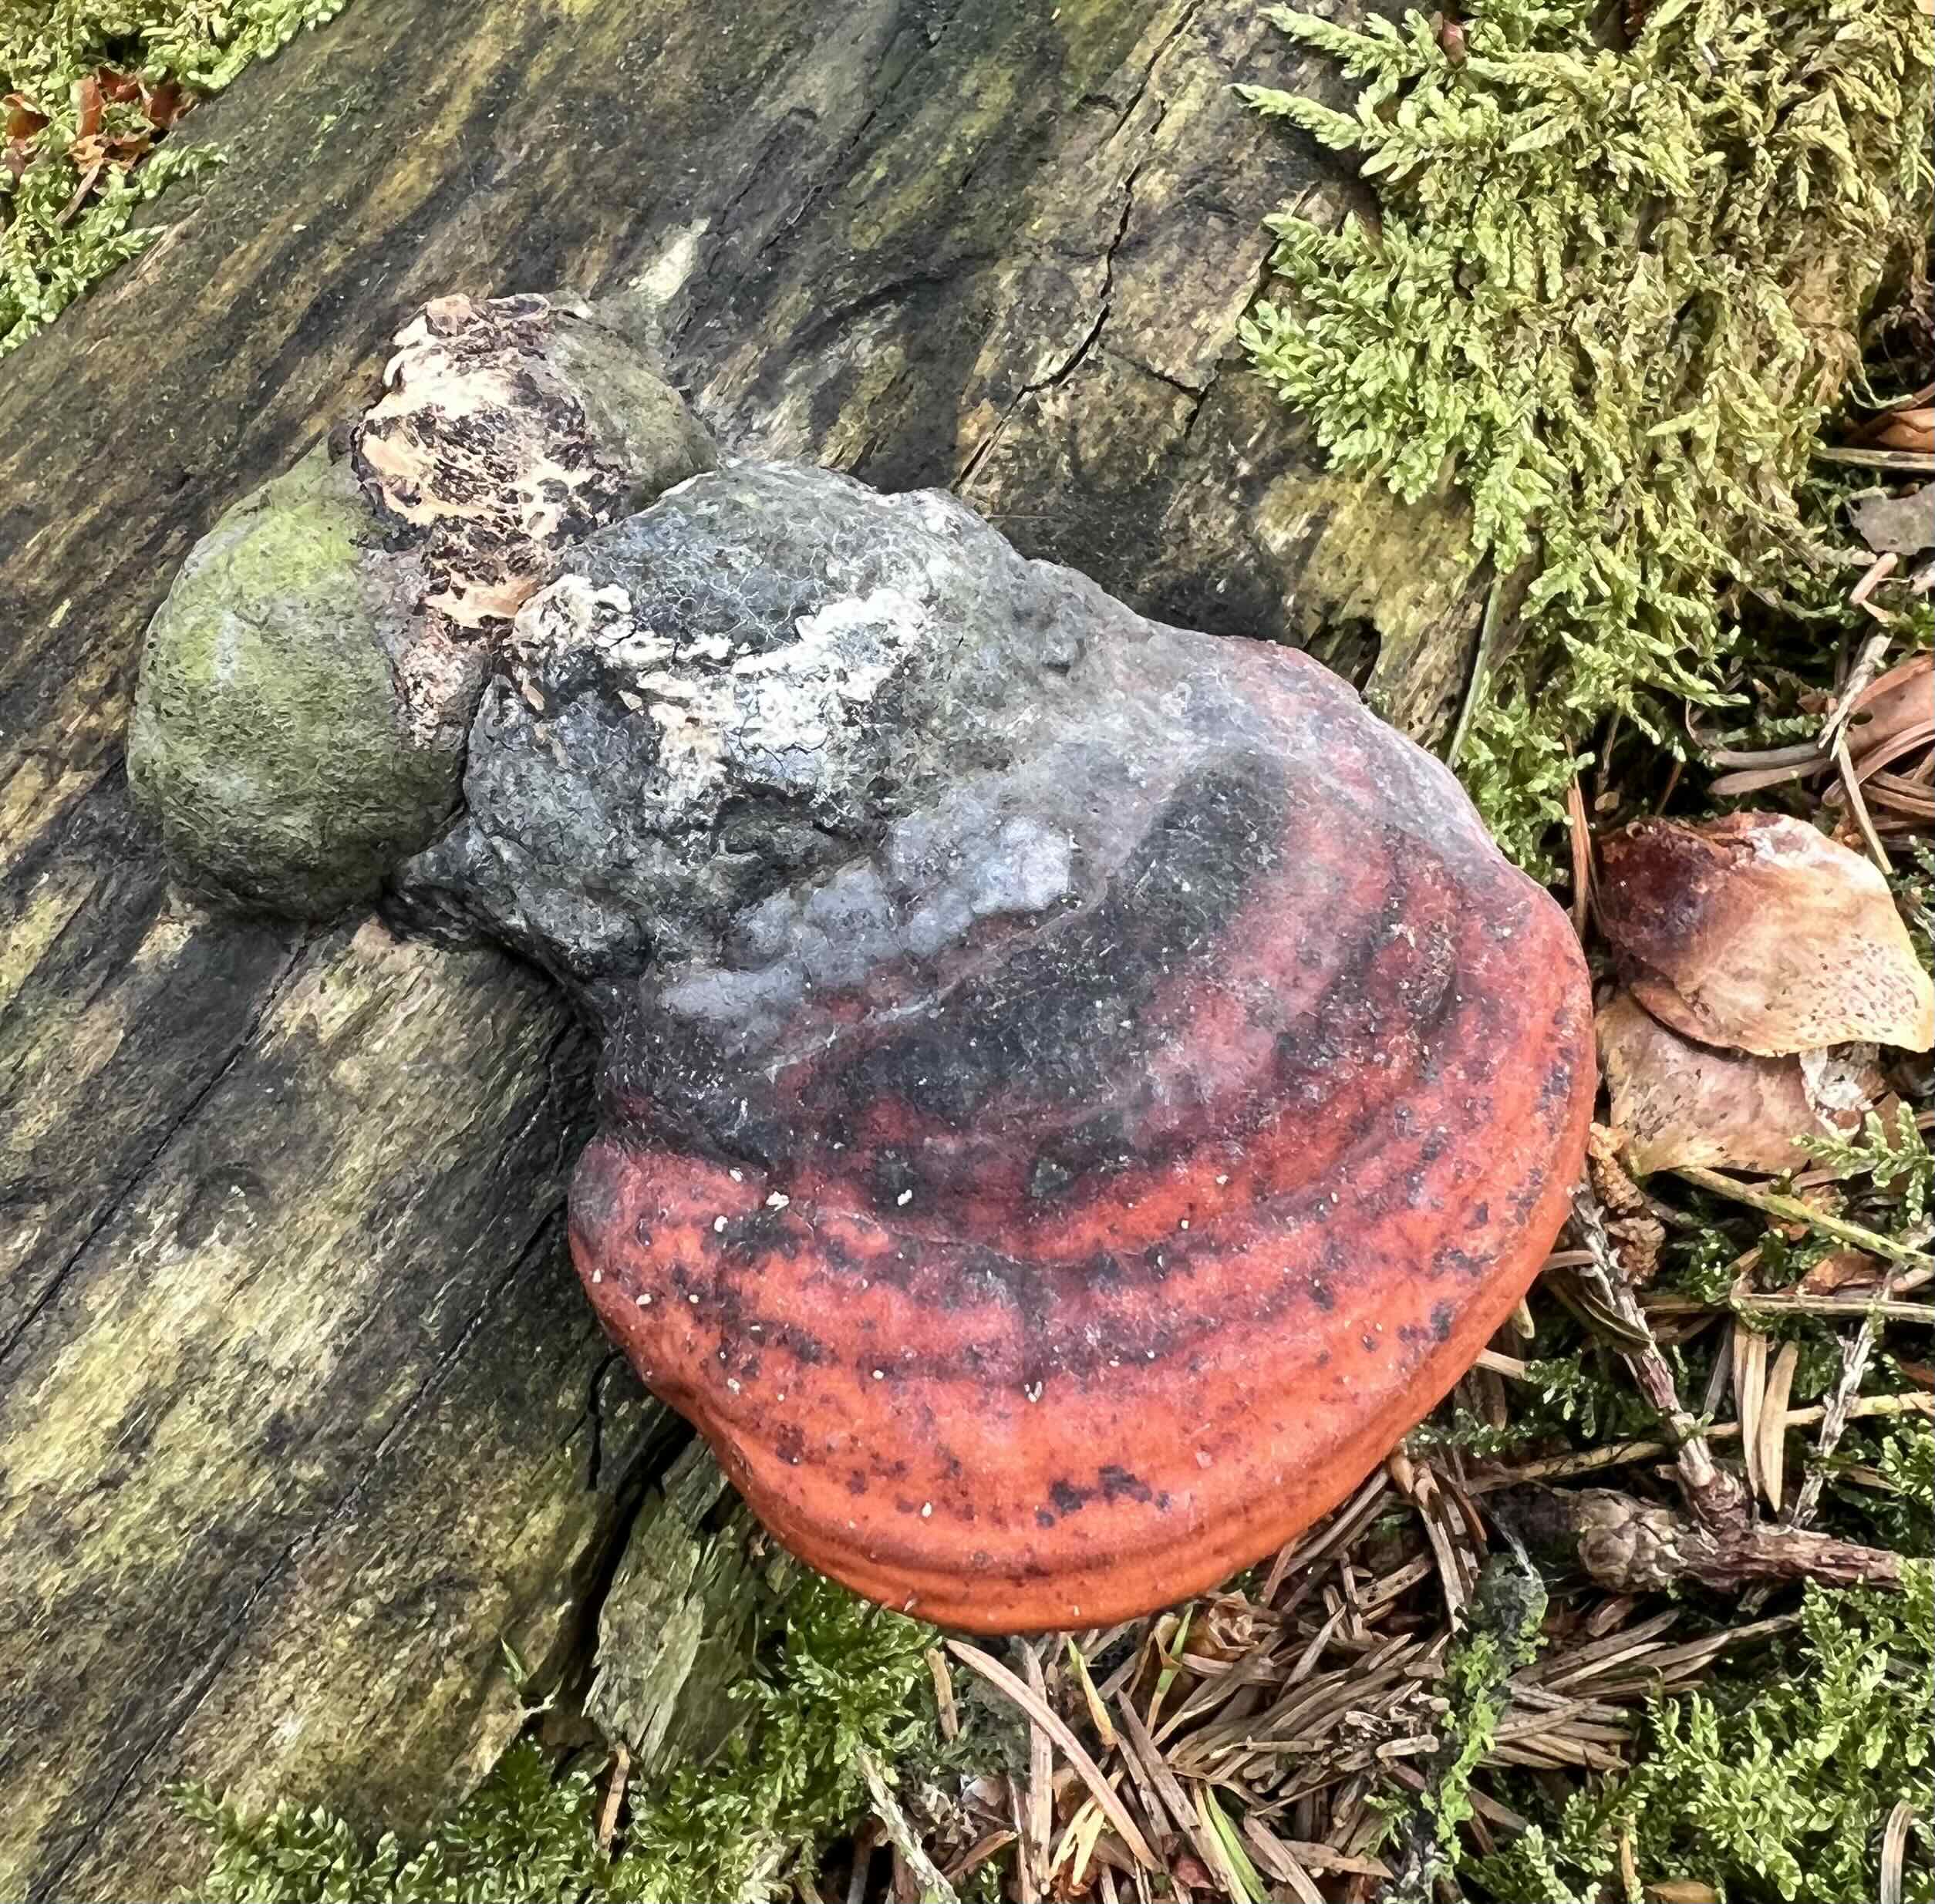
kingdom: Fungi
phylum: Basidiomycota
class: Agaricomycetes
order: Polyporales
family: Fomitopsidaceae
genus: Fomitopsis
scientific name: Fomitopsis pinicola
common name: randbæltet hovporesvamp
